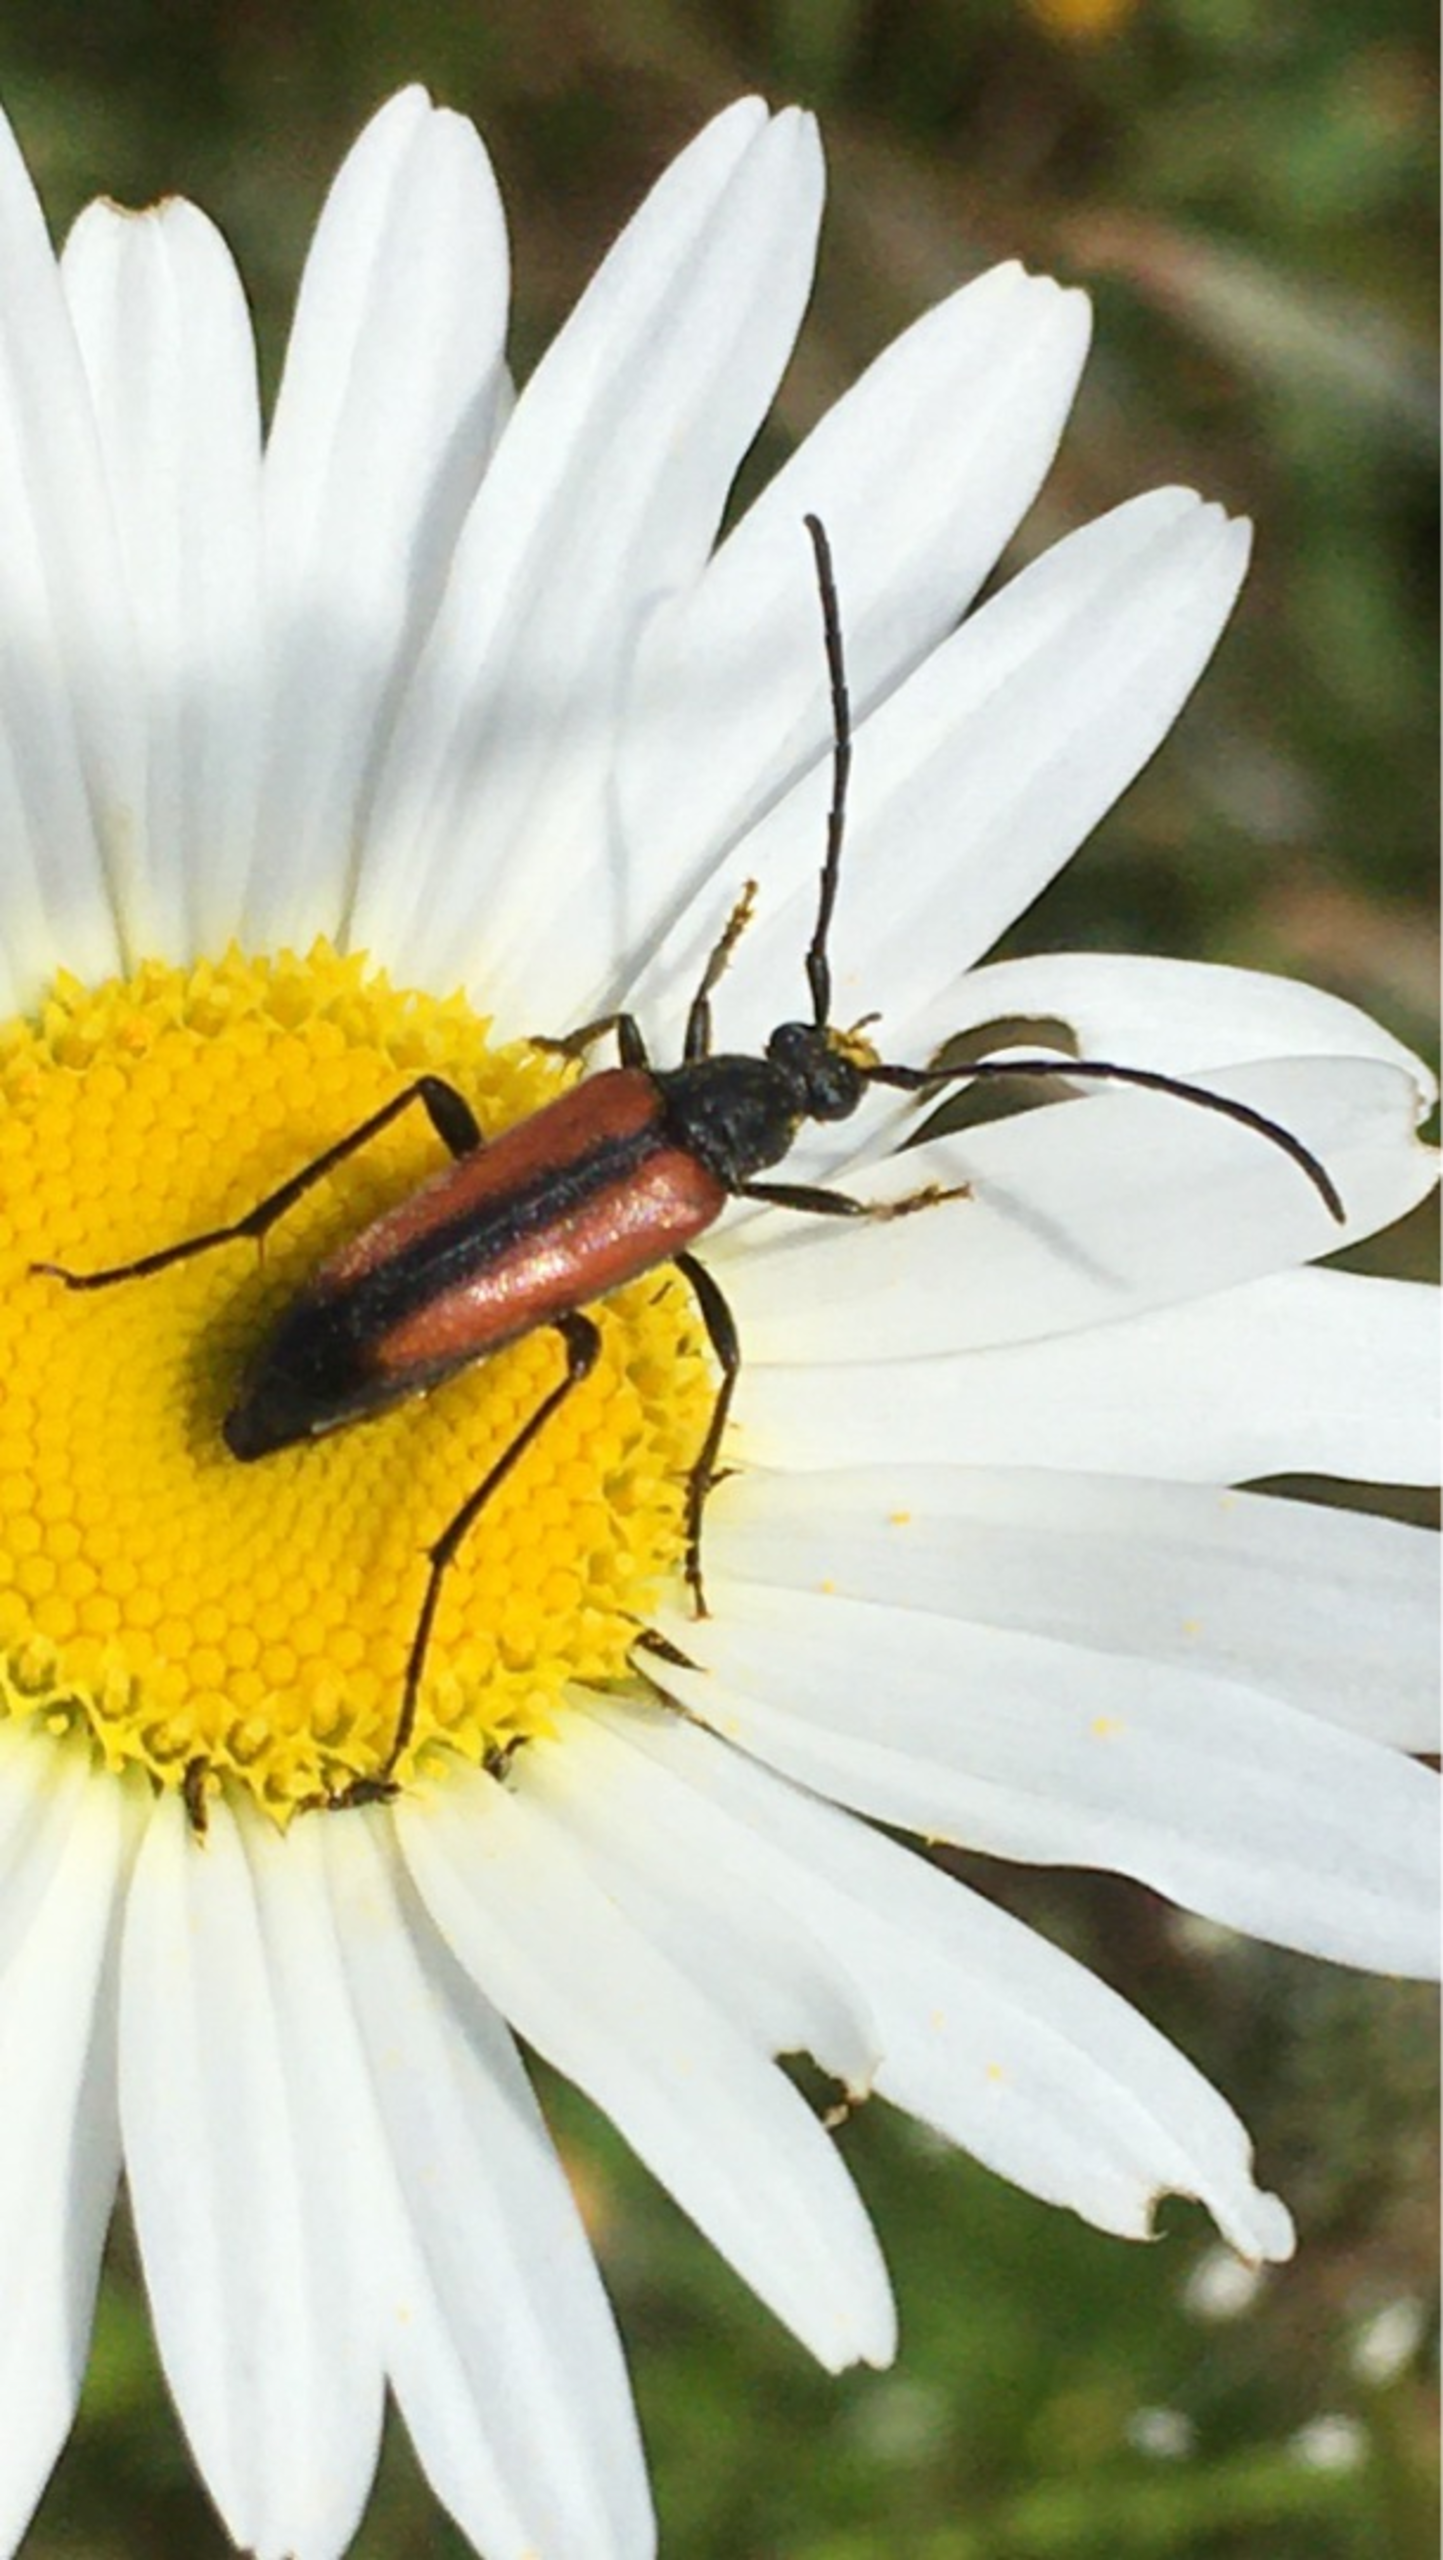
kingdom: Animalia
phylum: Arthropoda
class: Insecta
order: Coleoptera
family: Cerambycidae
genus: Stenurella
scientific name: Stenurella melanura
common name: Sortsømmet blomsterbuk
